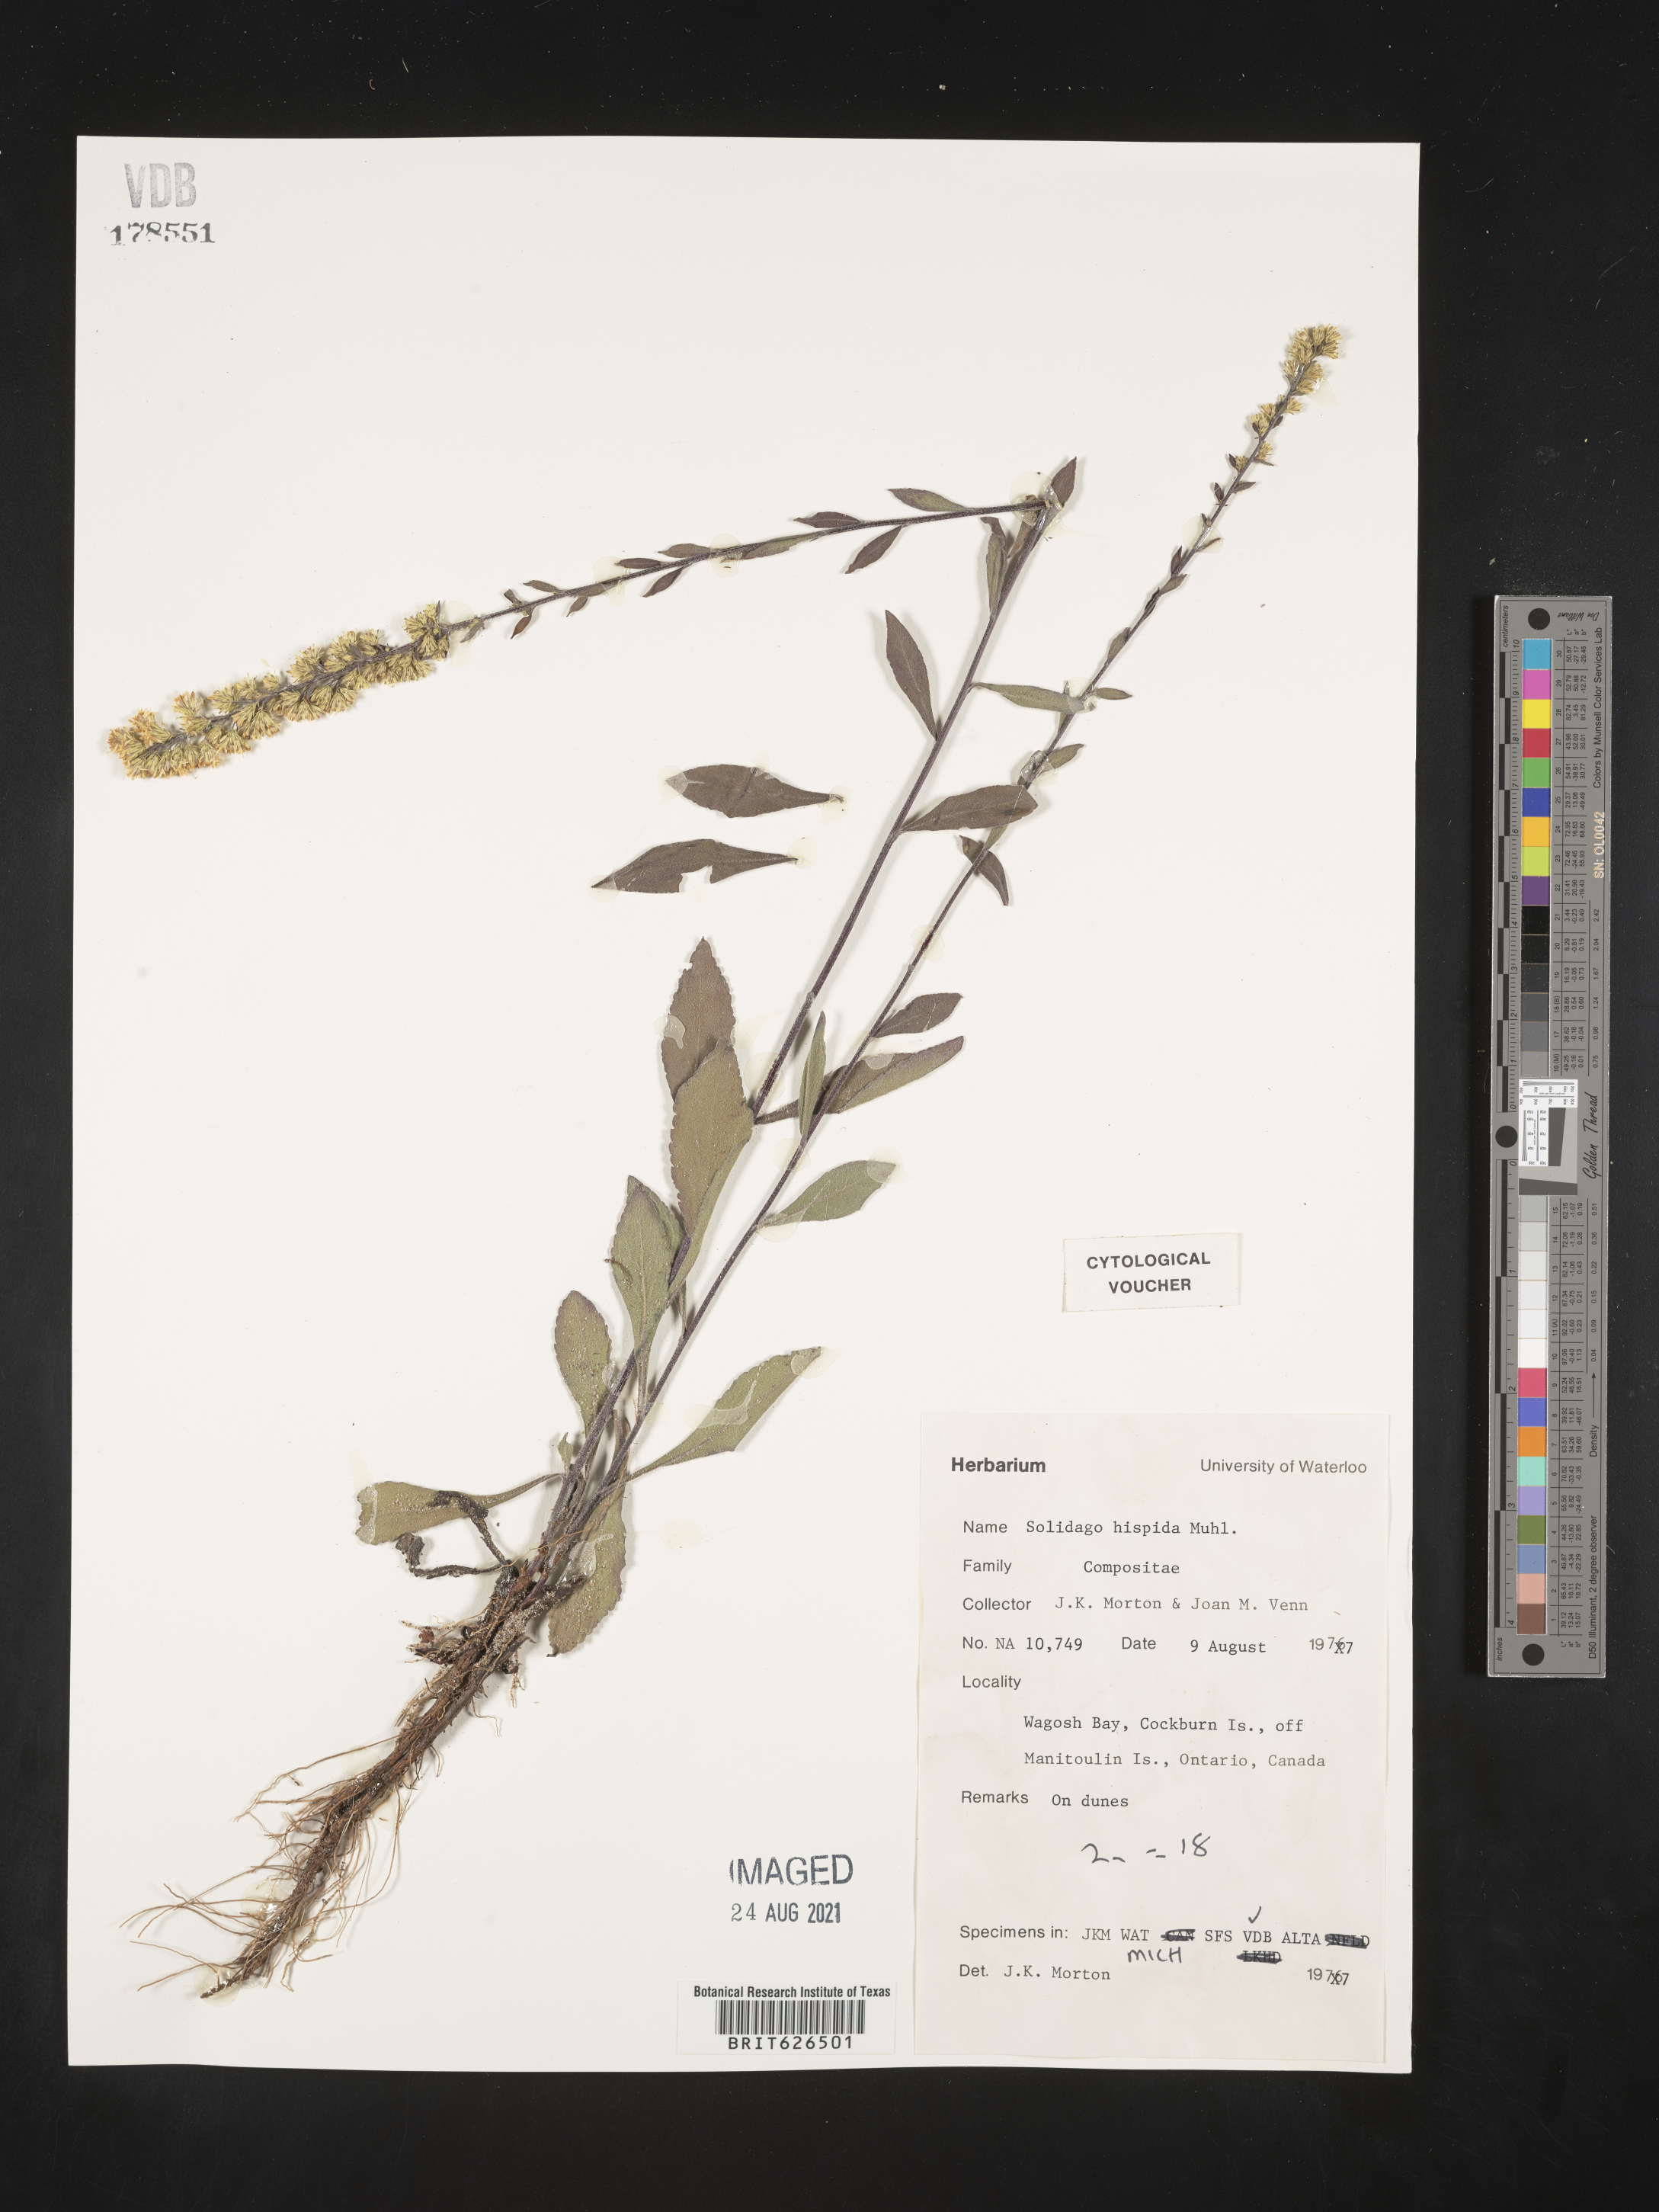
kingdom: Plantae
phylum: Tracheophyta
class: Magnoliopsida
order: Asterales
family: Asteraceae
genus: Solidago
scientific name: Solidago hispida
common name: Hairy goldenrod
